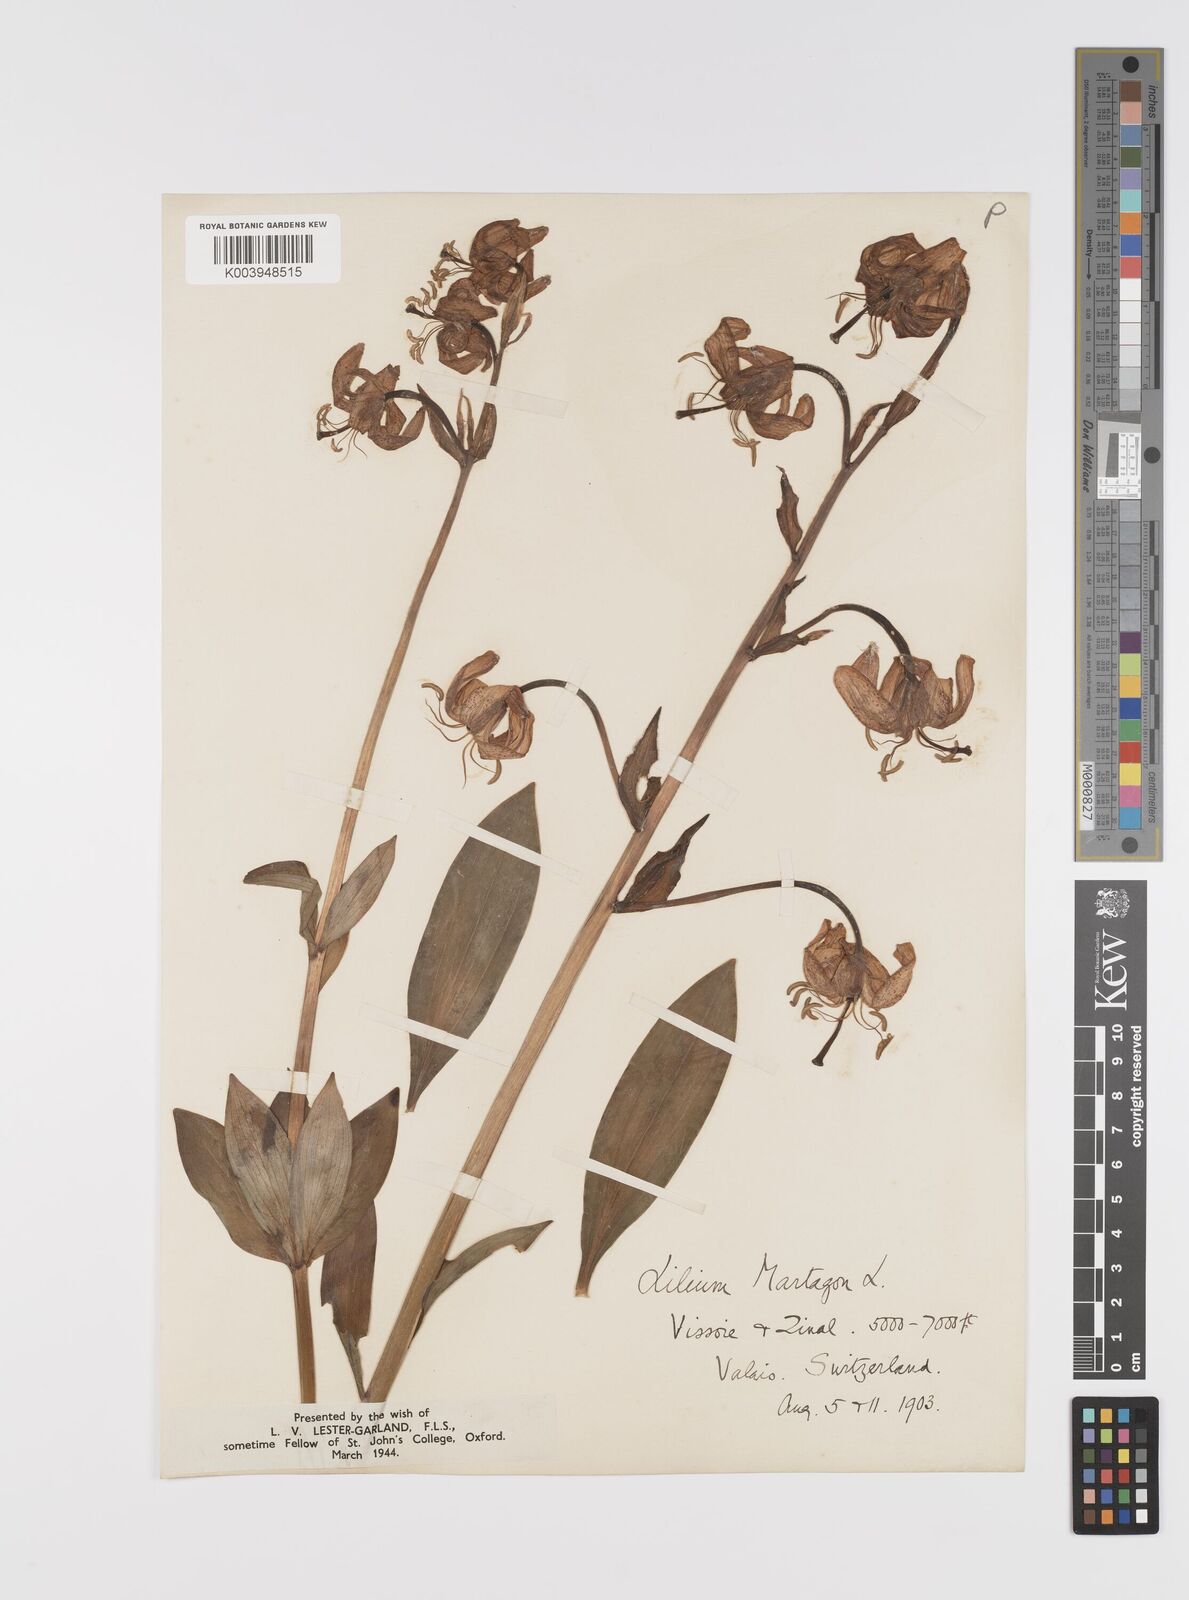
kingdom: Plantae
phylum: Tracheophyta
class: Liliopsida
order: Liliales
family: Liliaceae
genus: Lilium
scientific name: Lilium martagon
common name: Martagon lily
